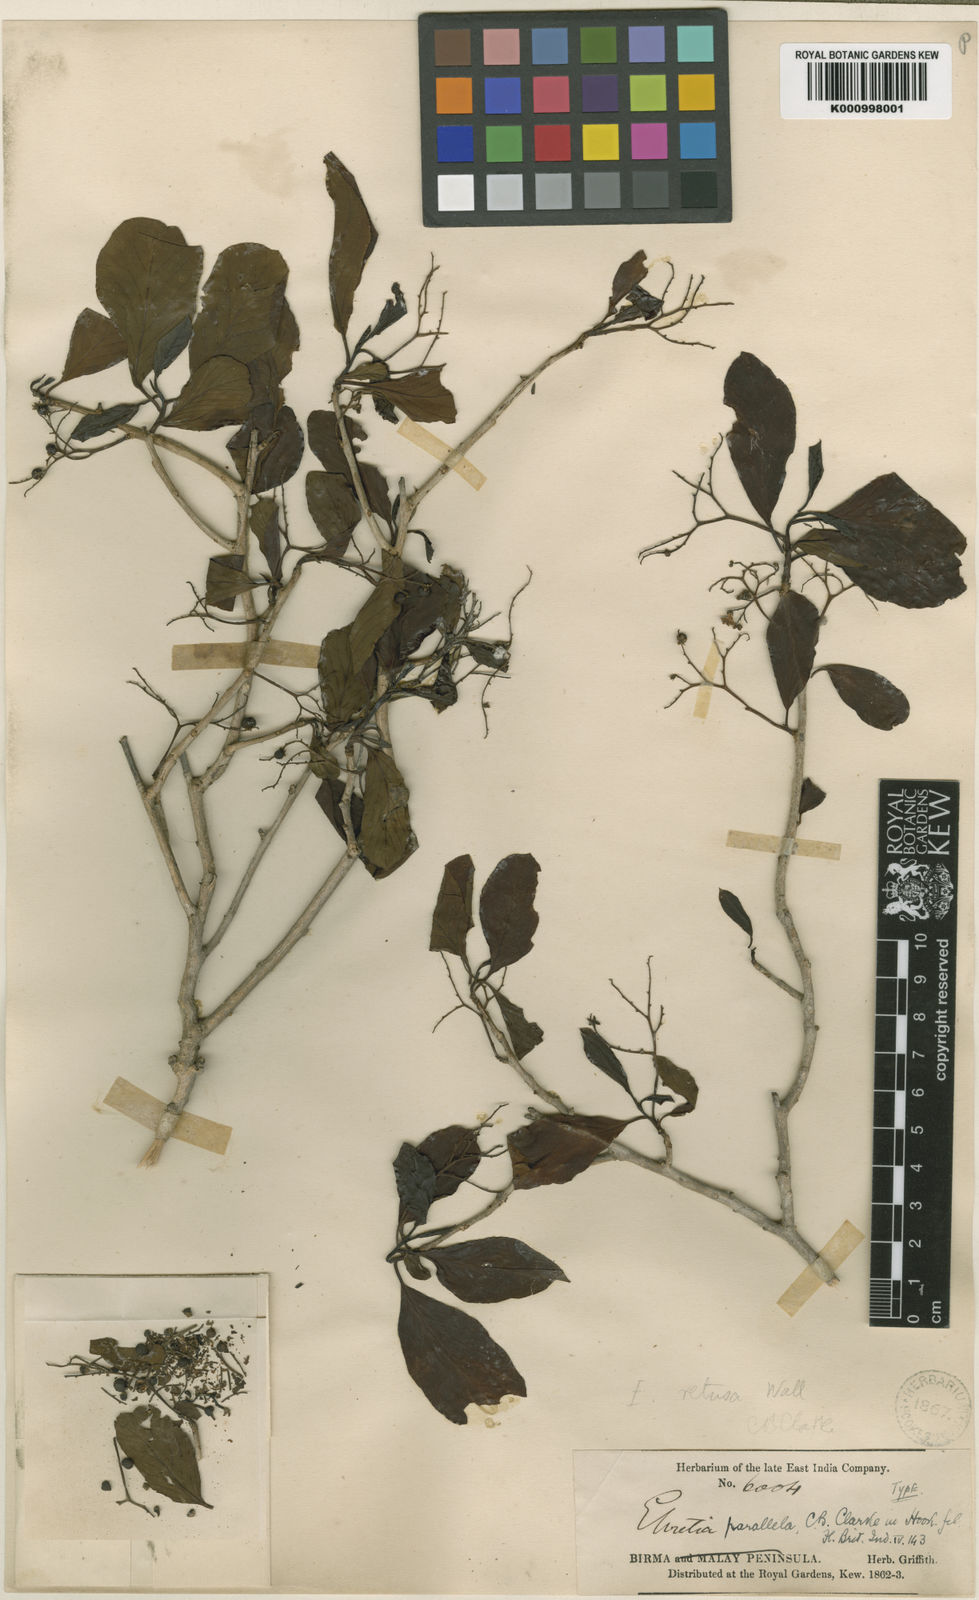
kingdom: Plantae
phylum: Tracheophyta
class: Magnoliopsida
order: Boraginales
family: Ehretiaceae
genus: Ehretia
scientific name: Ehretia parallela
